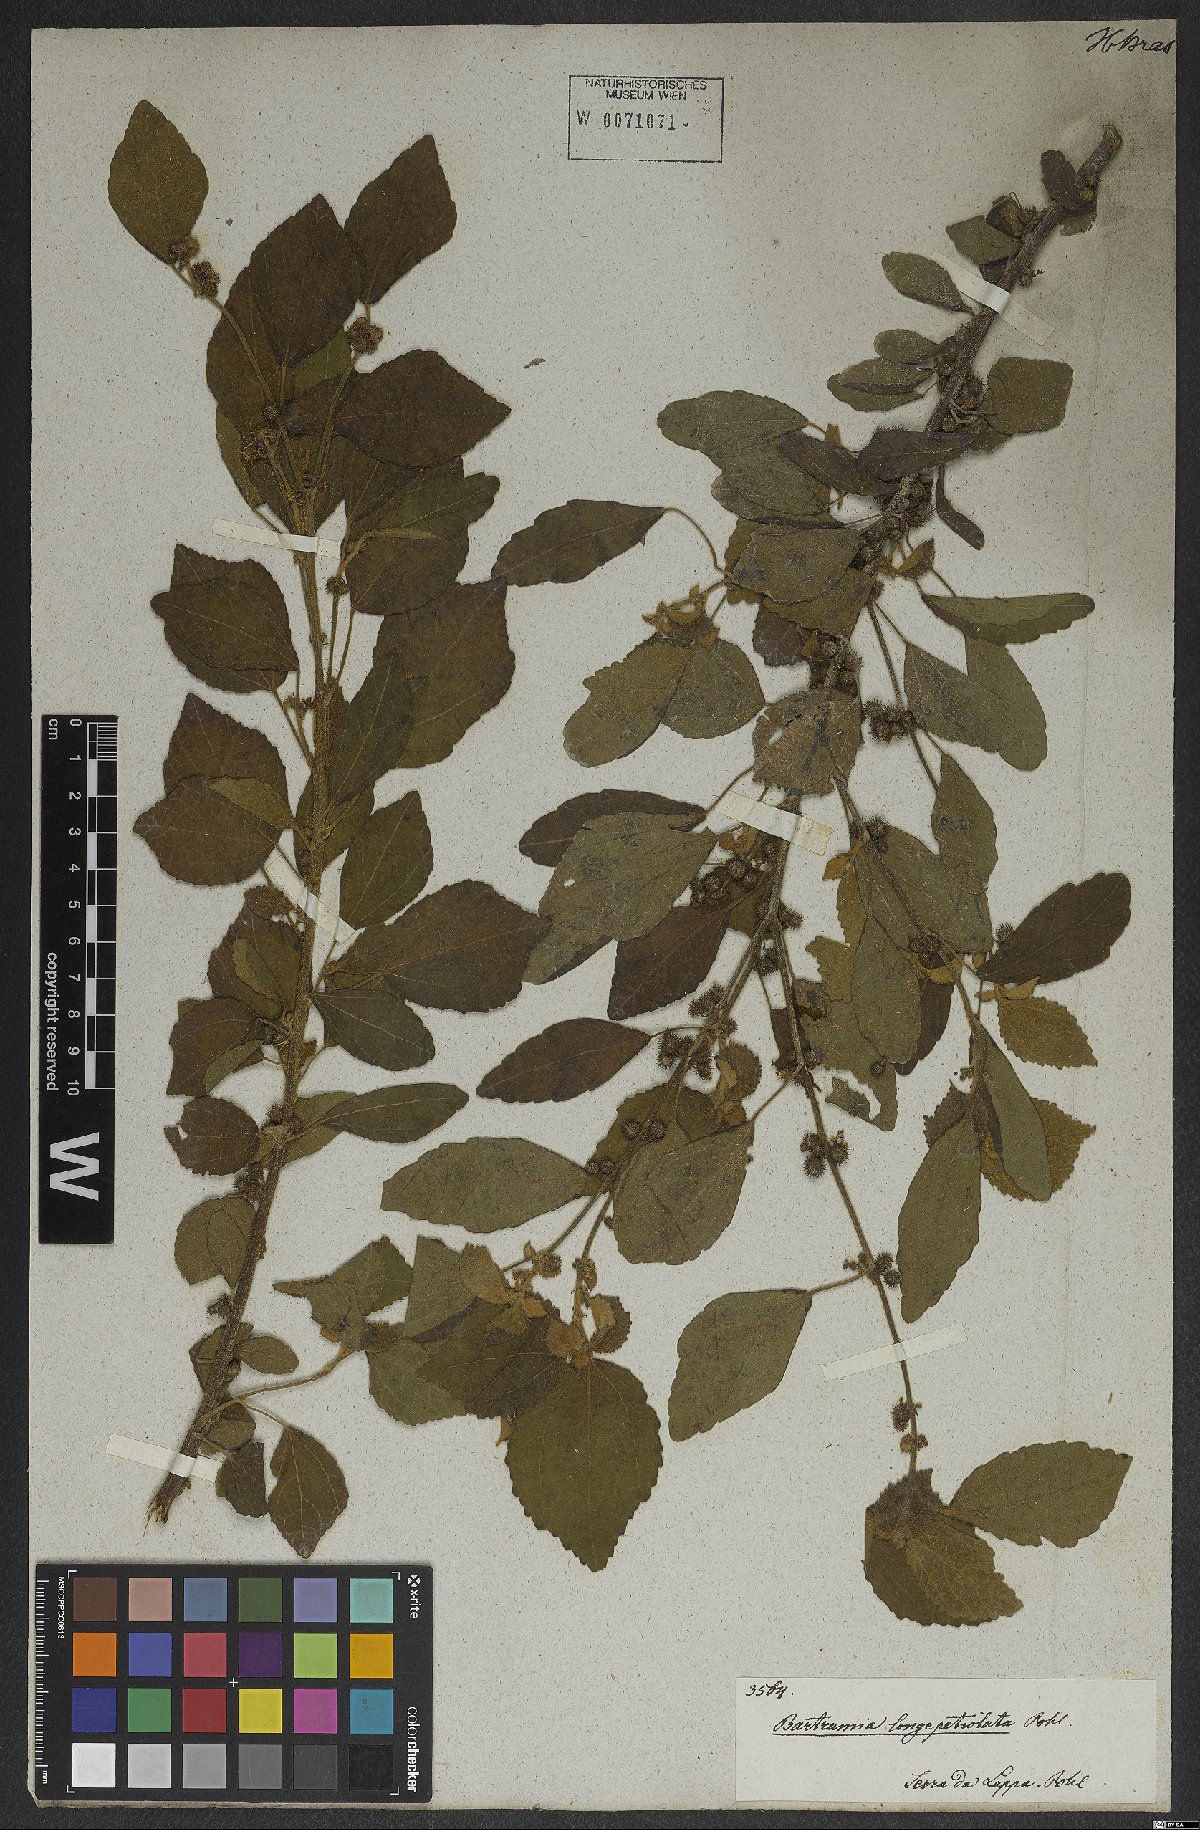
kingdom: Plantae
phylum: Tracheophyta
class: Magnoliopsida
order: Malvales
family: Malvaceae
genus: Triumfetta
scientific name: Triumfetta
